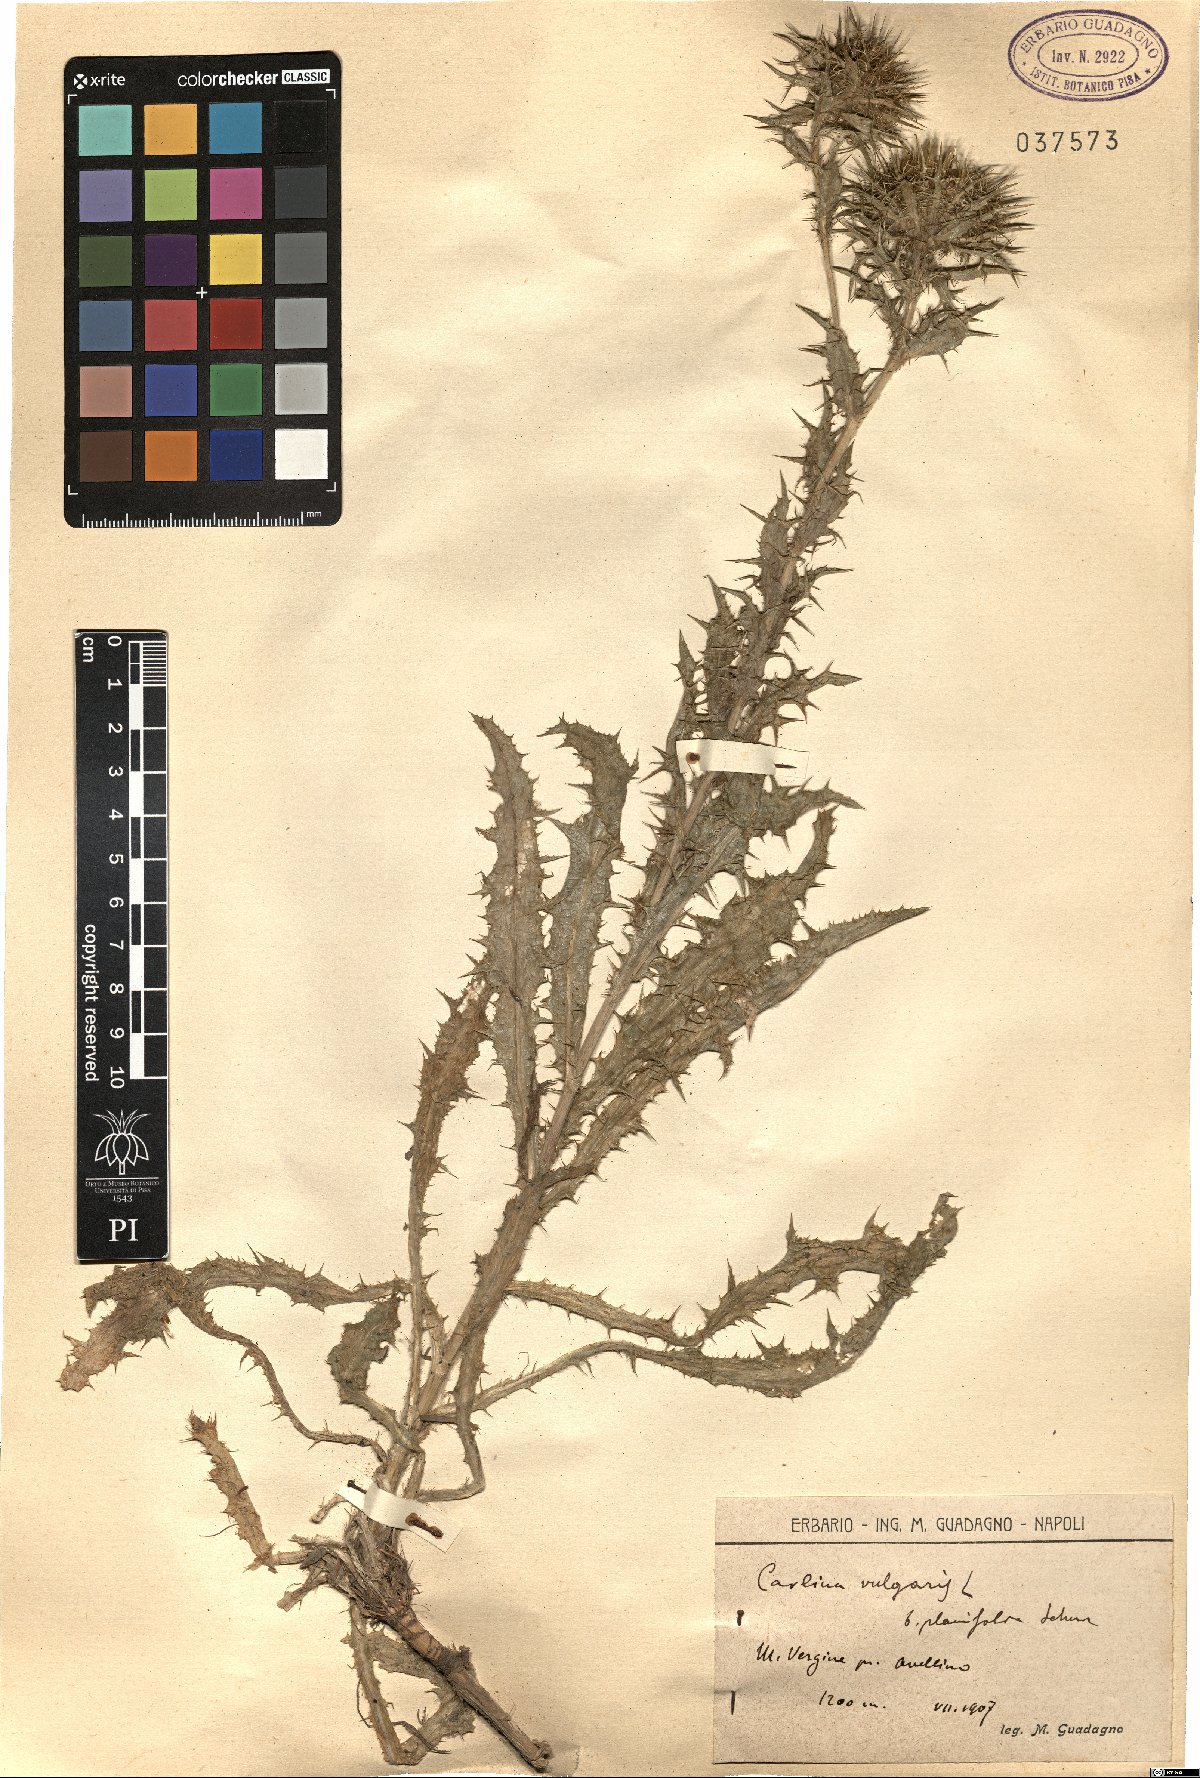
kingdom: Plantae
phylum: Tracheophyta
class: Magnoliopsida
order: Asterales
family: Asteraceae
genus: Carlina
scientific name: Carlina vulgaris
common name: Carline thistle
